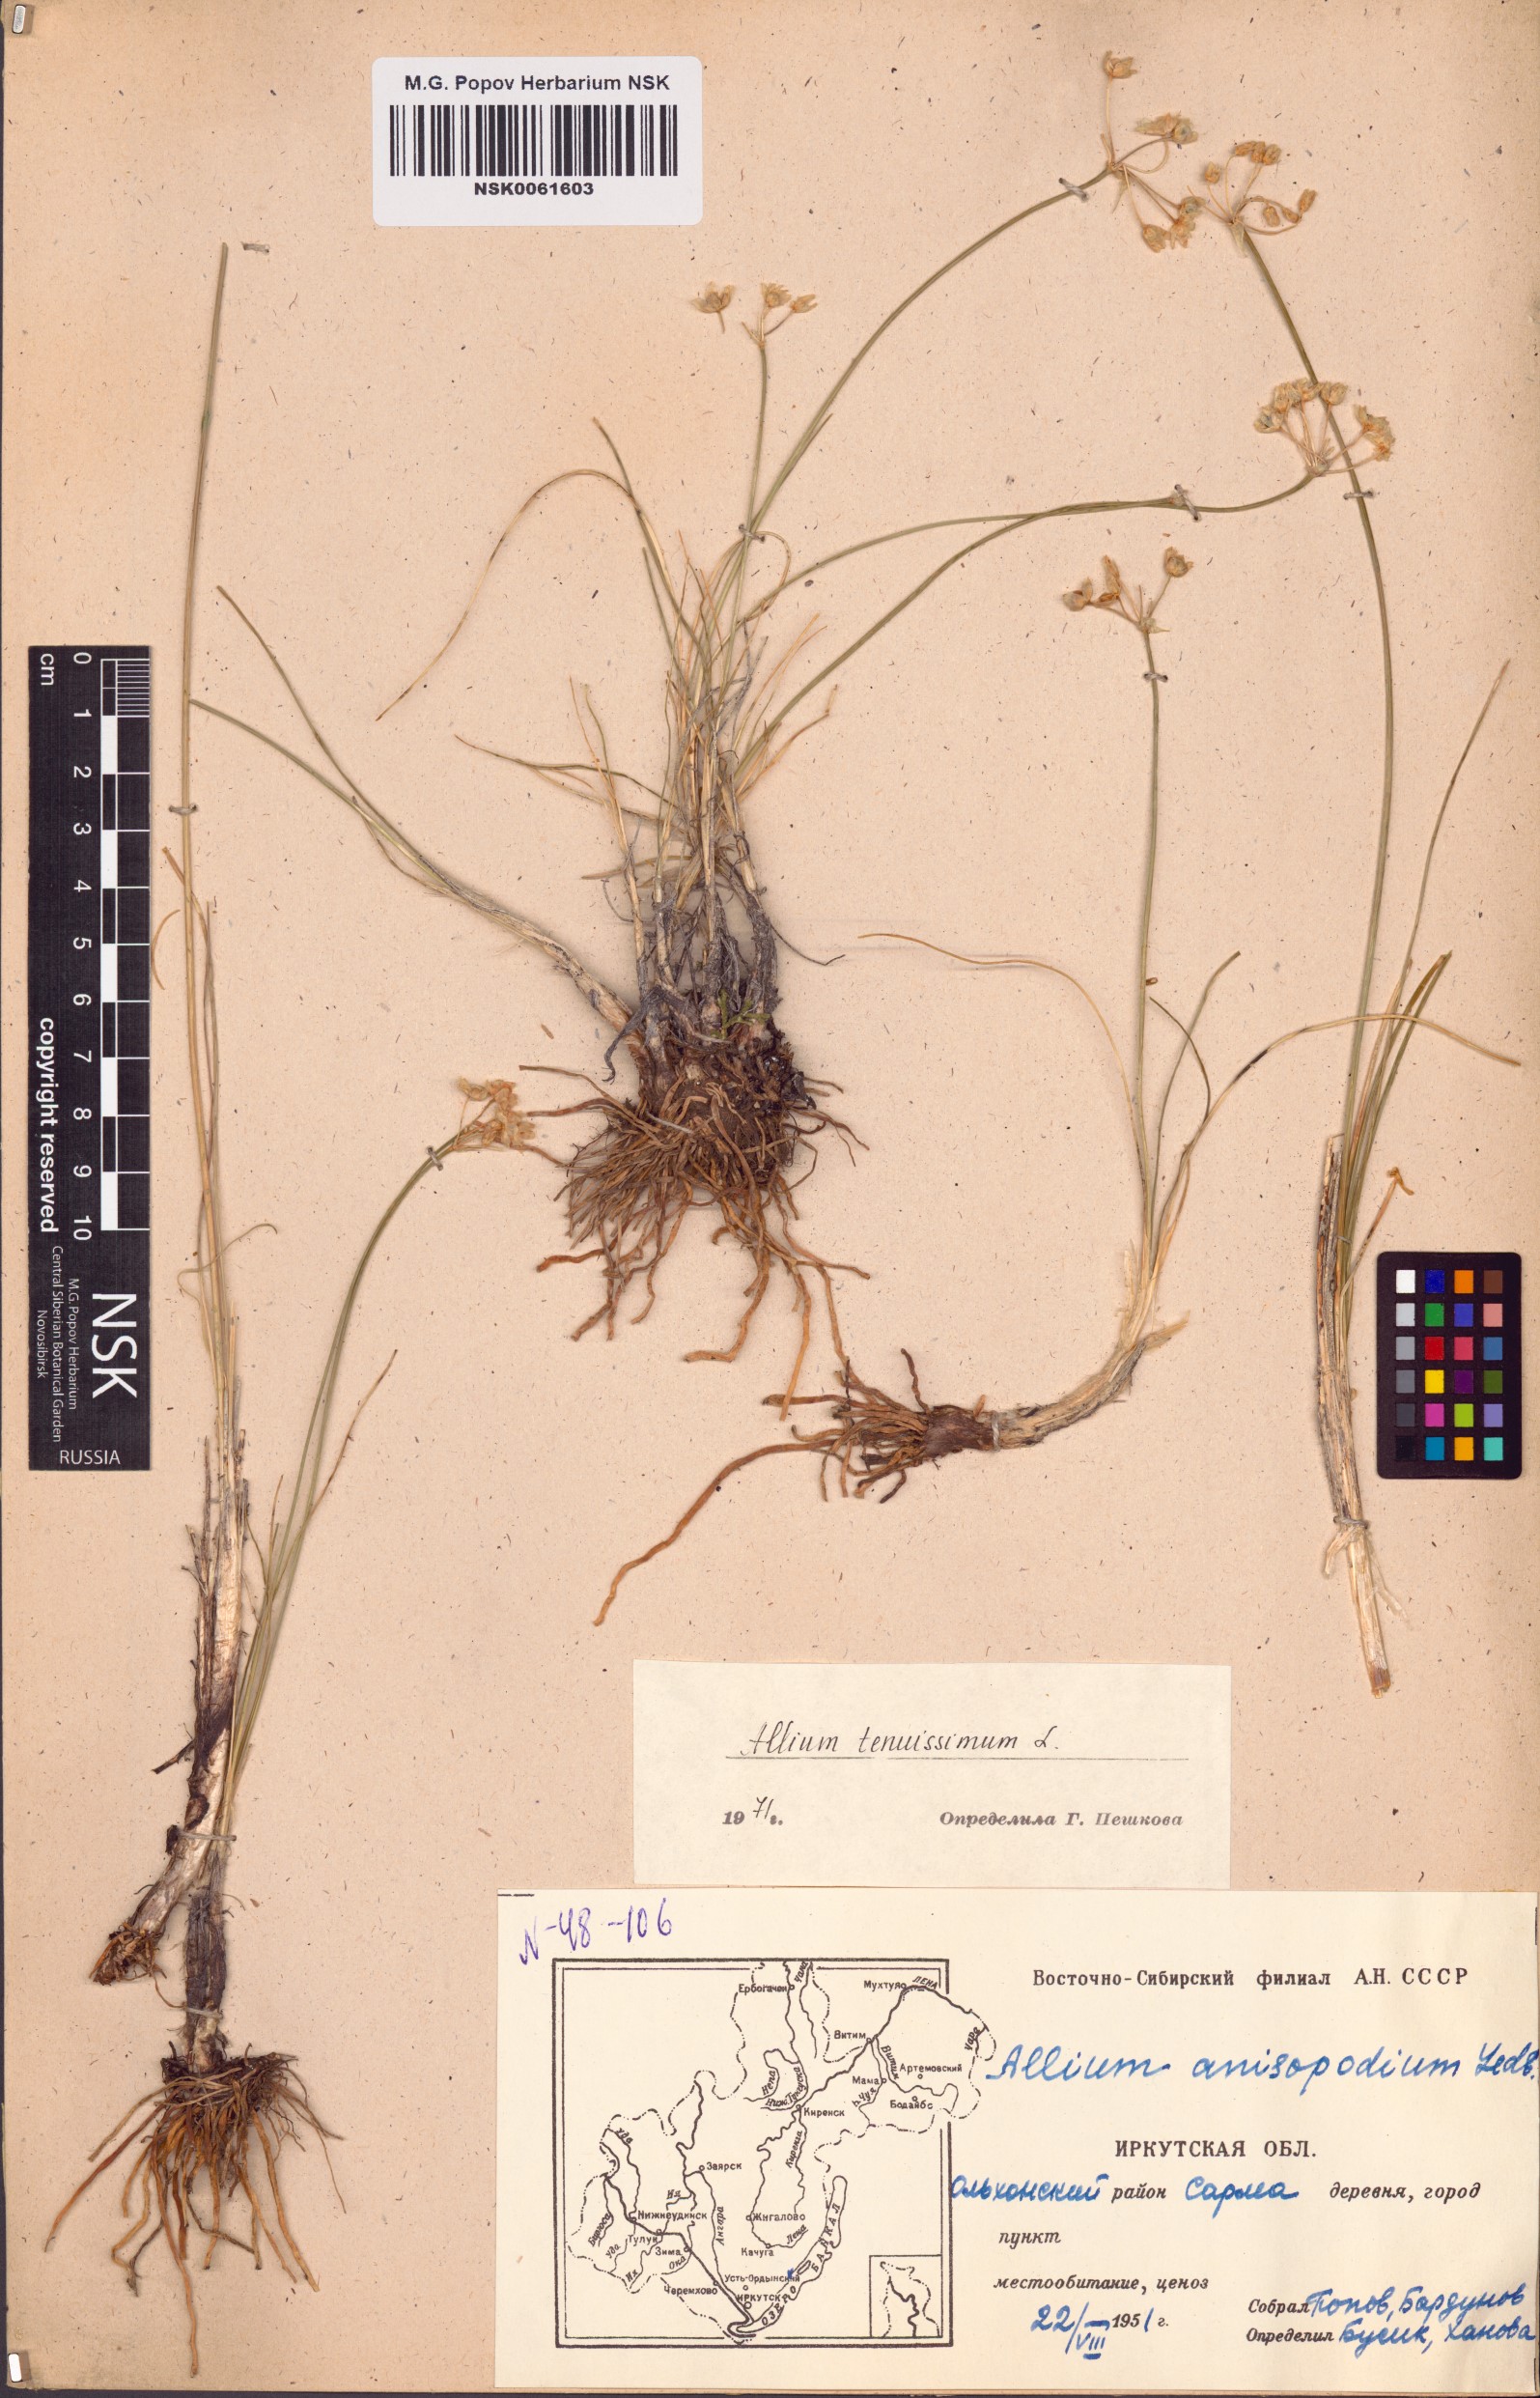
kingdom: Plantae
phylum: Tracheophyta
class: Liliopsida
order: Asparagales
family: Amaryllidaceae
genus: Allium
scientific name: Allium tenuissimum
